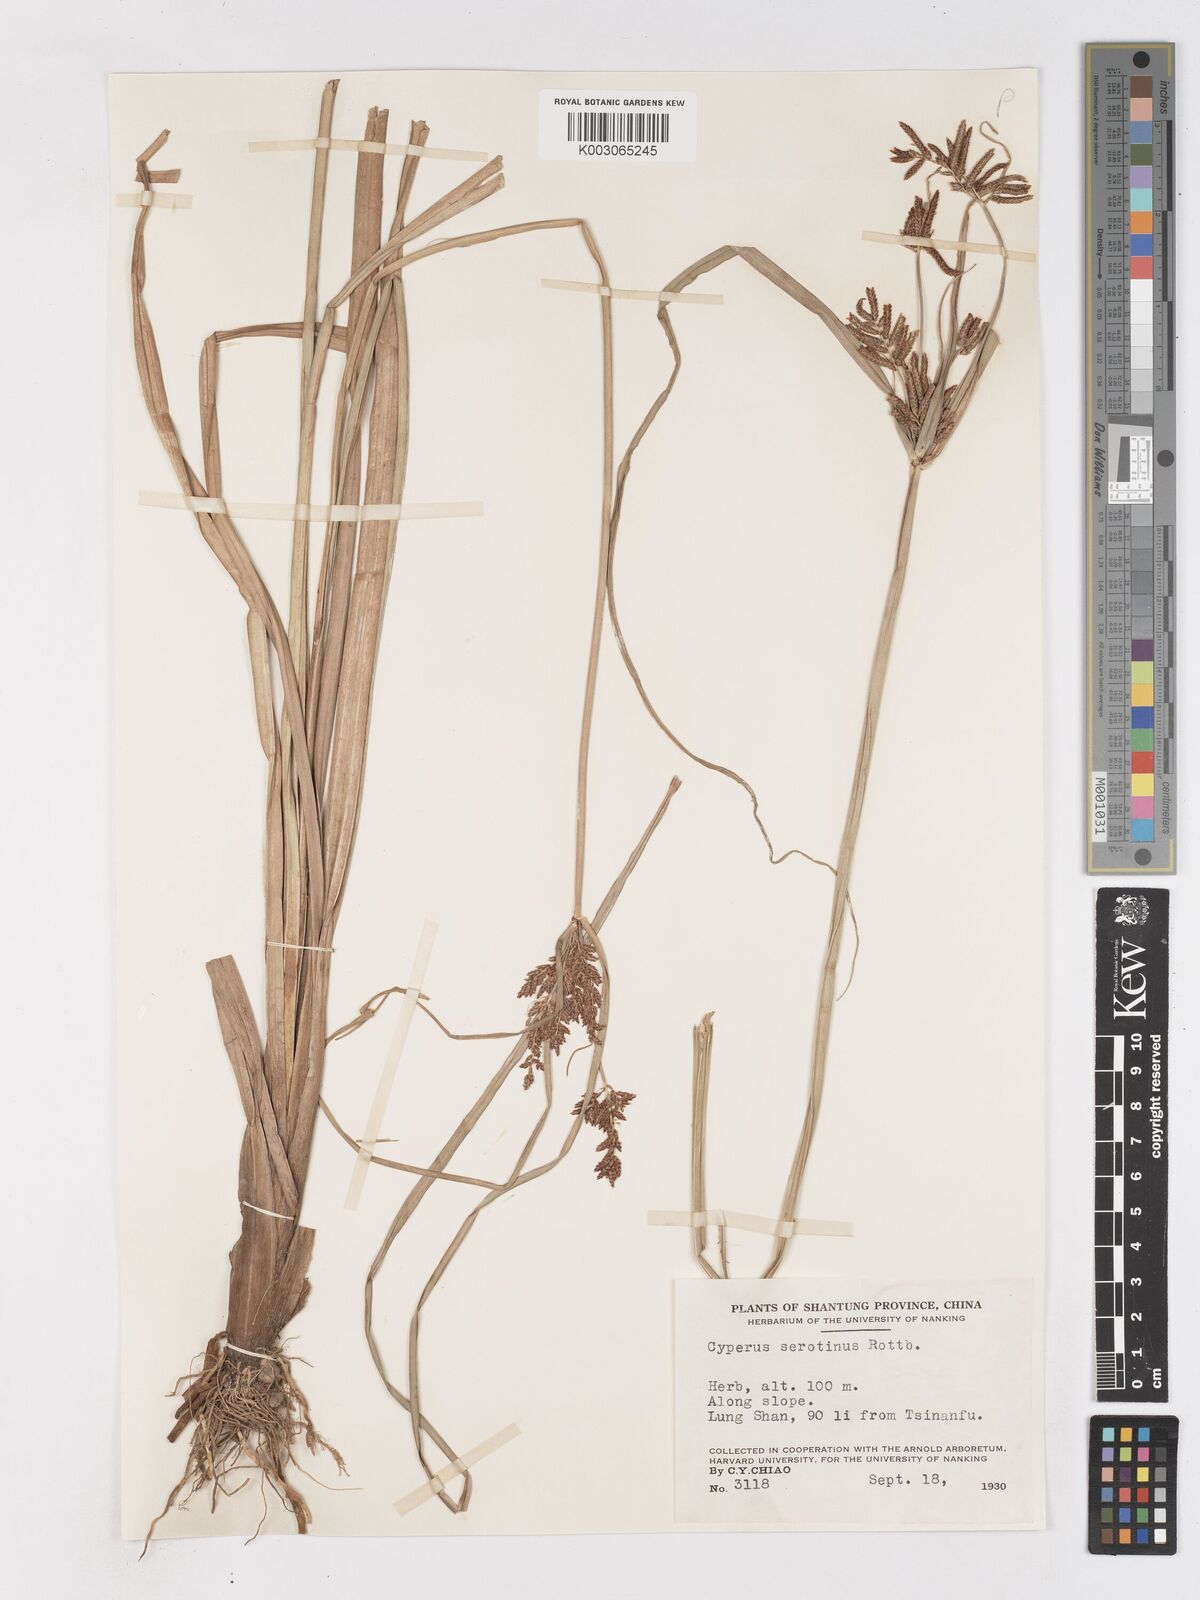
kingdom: Plantae
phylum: Tracheophyta
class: Liliopsida
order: Poales
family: Cyperaceae
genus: Cyperus
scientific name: Cyperus serotinus
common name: Tidalmarsh flatsedge
